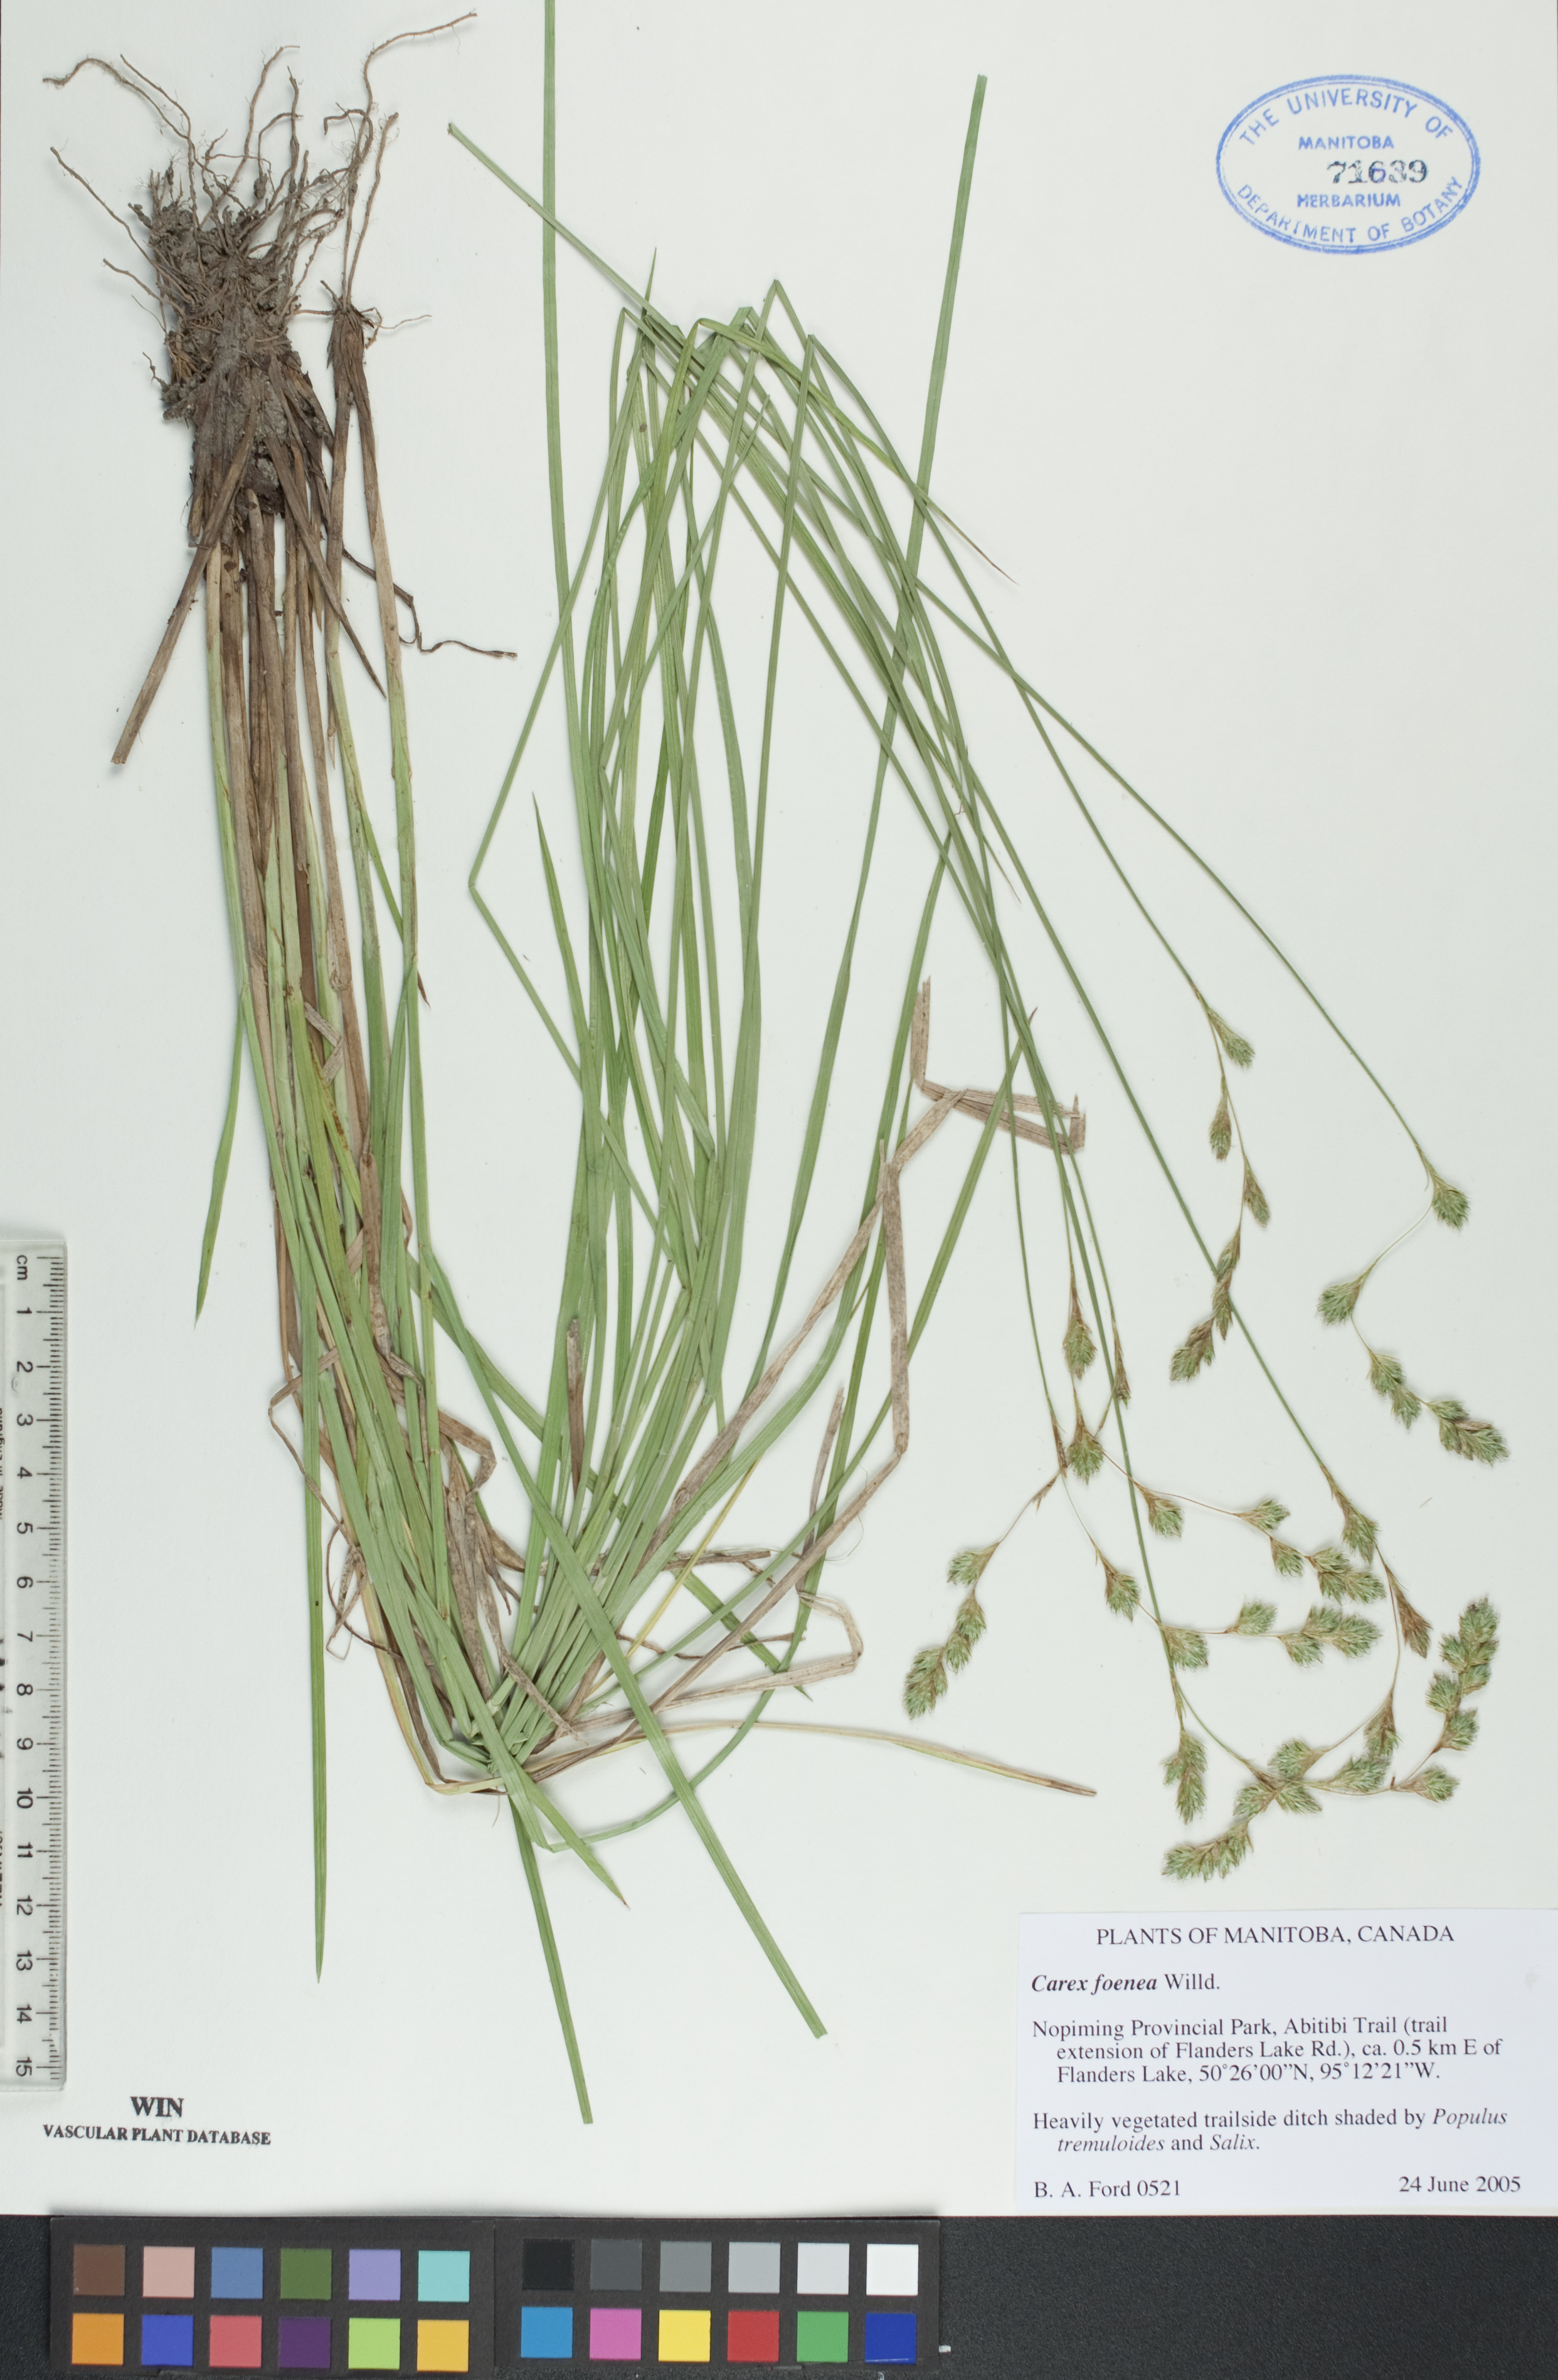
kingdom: Plantae
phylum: Tracheophyta
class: Liliopsida
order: Poales
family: Cyperaceae
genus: Carex
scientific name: Carex foenea
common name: Bronze sedge
